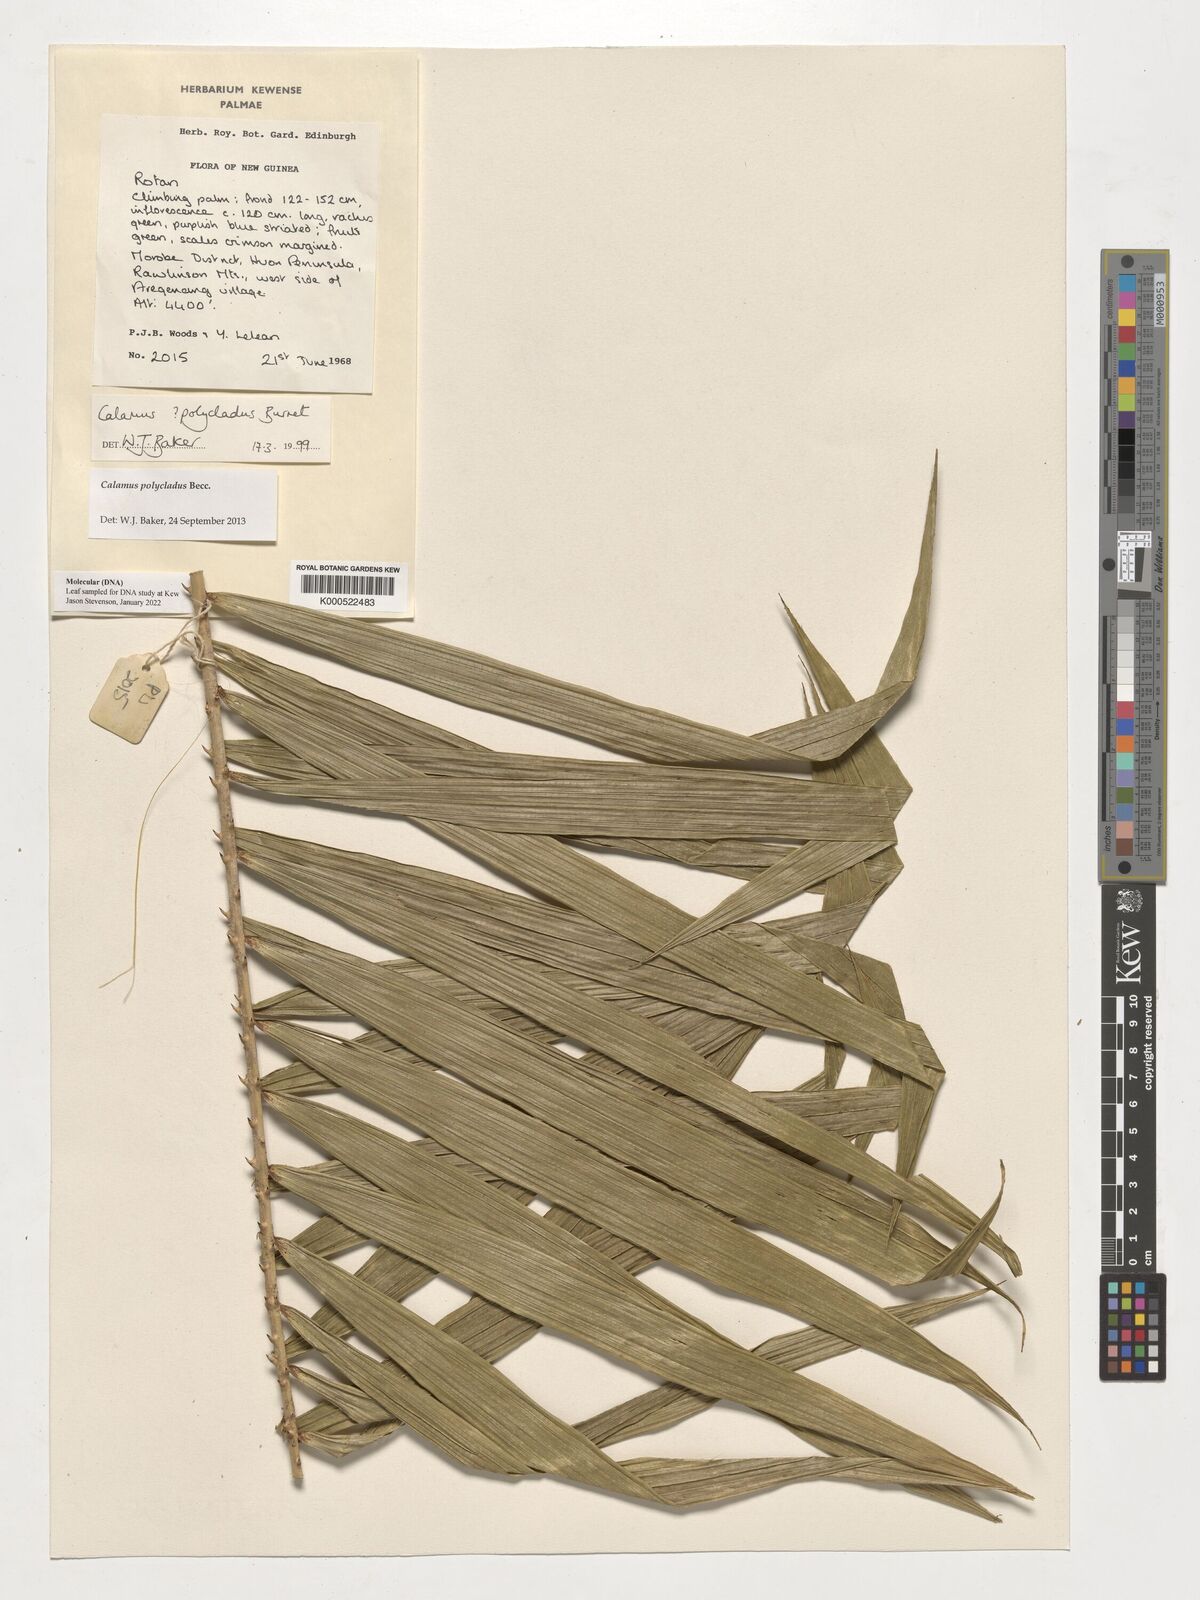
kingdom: Plantae
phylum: Tracheophyta
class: Liliopsida
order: Arecales
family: Arecaceae
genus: Calamus
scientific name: Calamus polycladus
